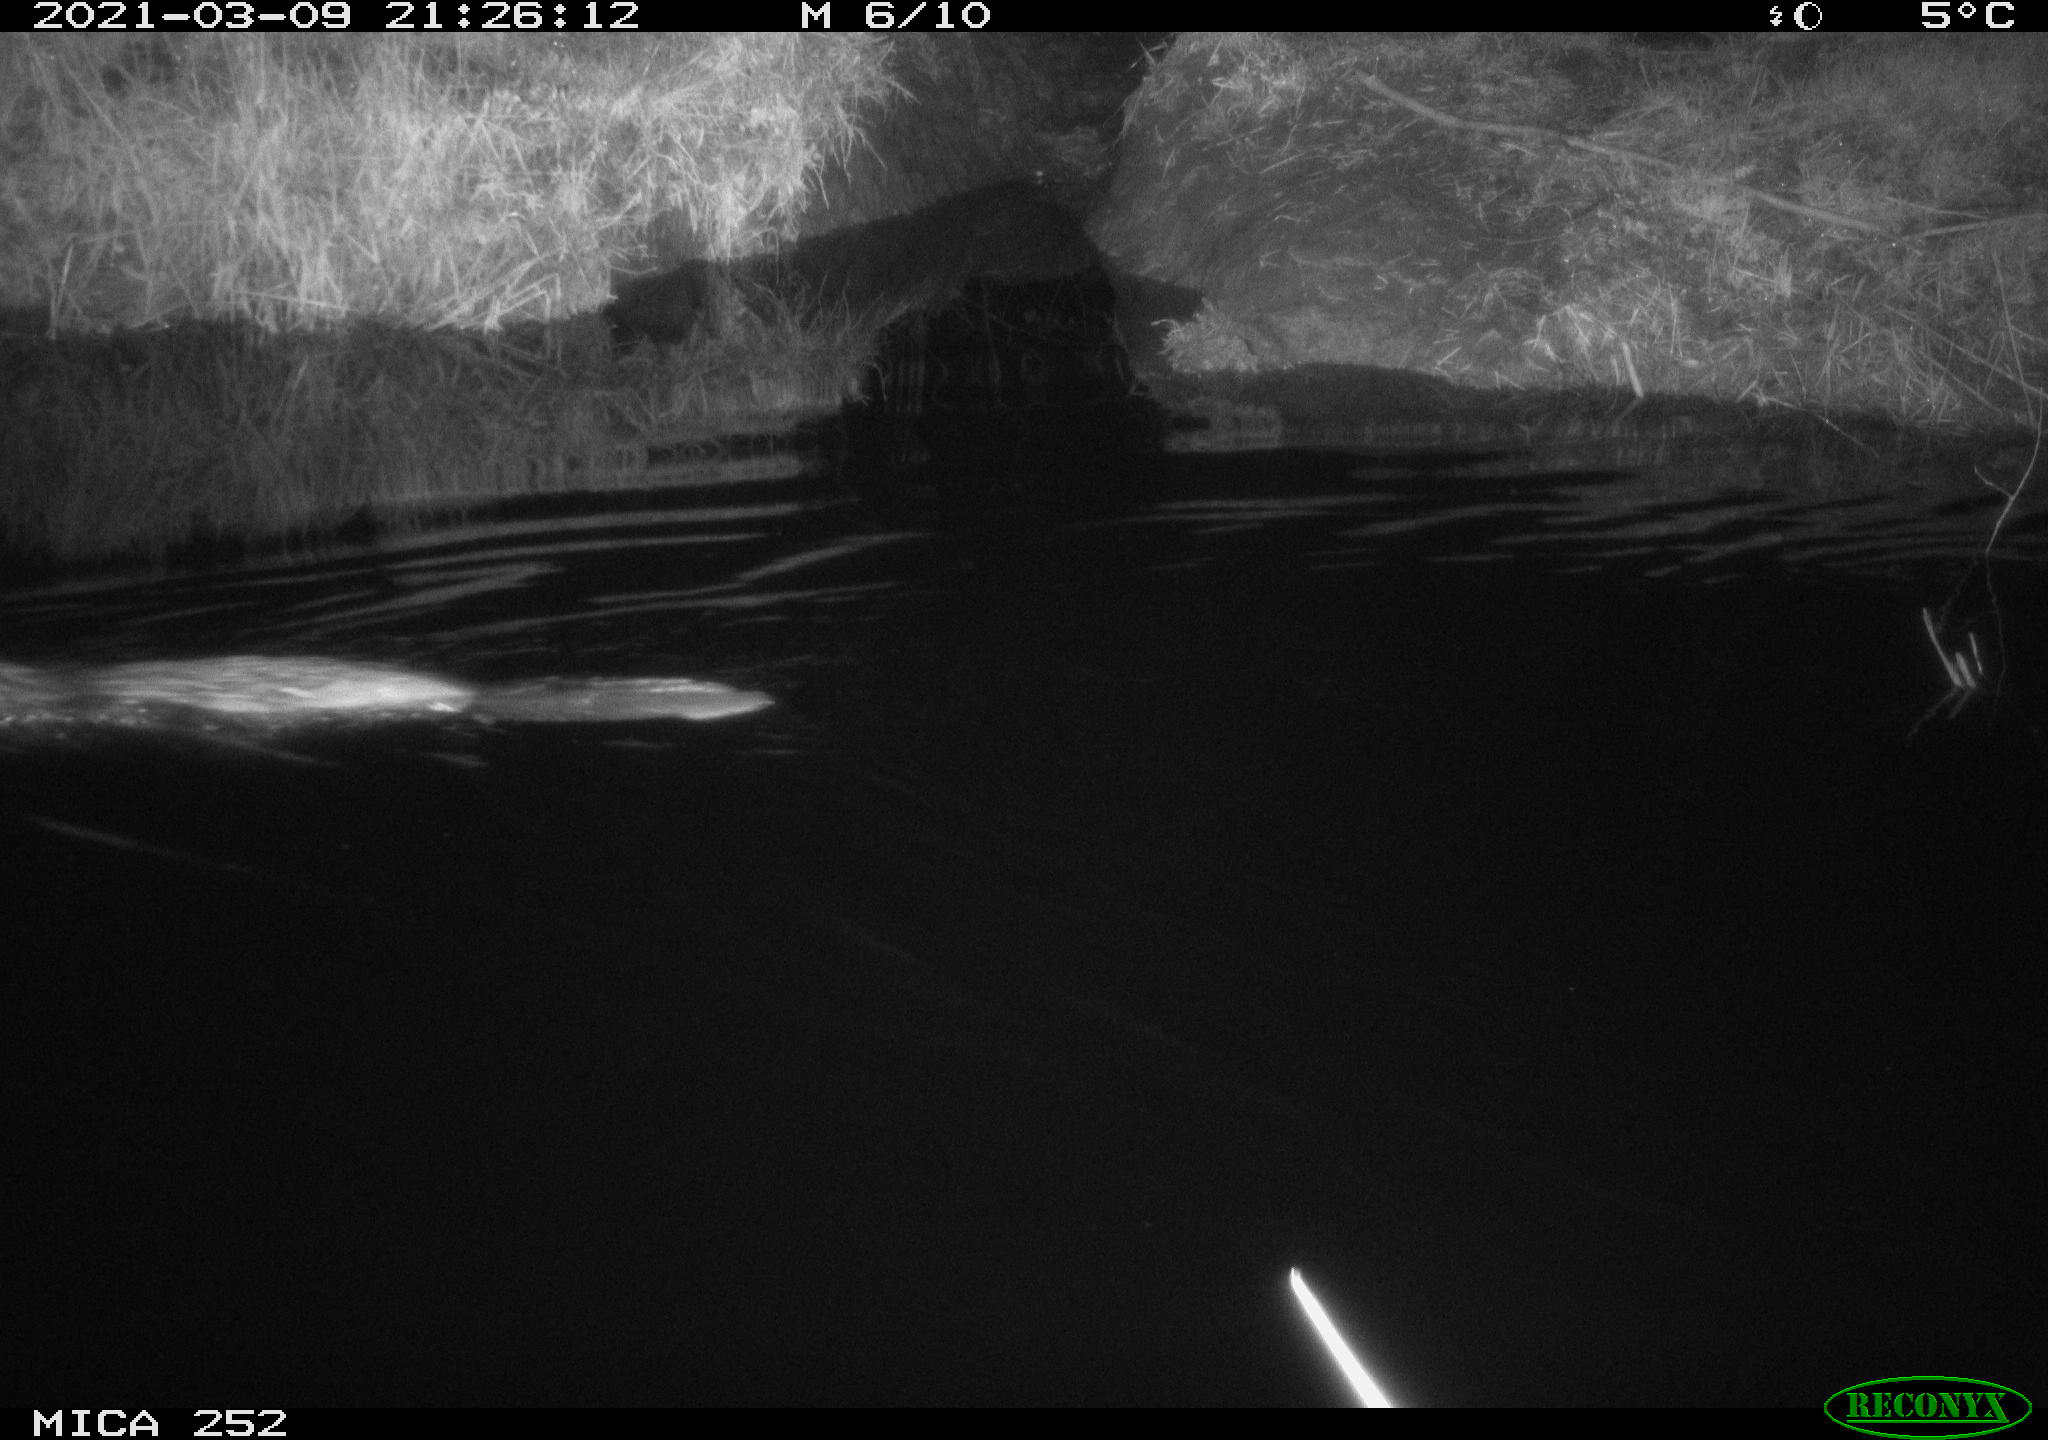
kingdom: Animalia
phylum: Chordata
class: Mammalia
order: Rodentia
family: Castoridae
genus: Castor
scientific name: Castor fiber
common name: Eurasian beaver
